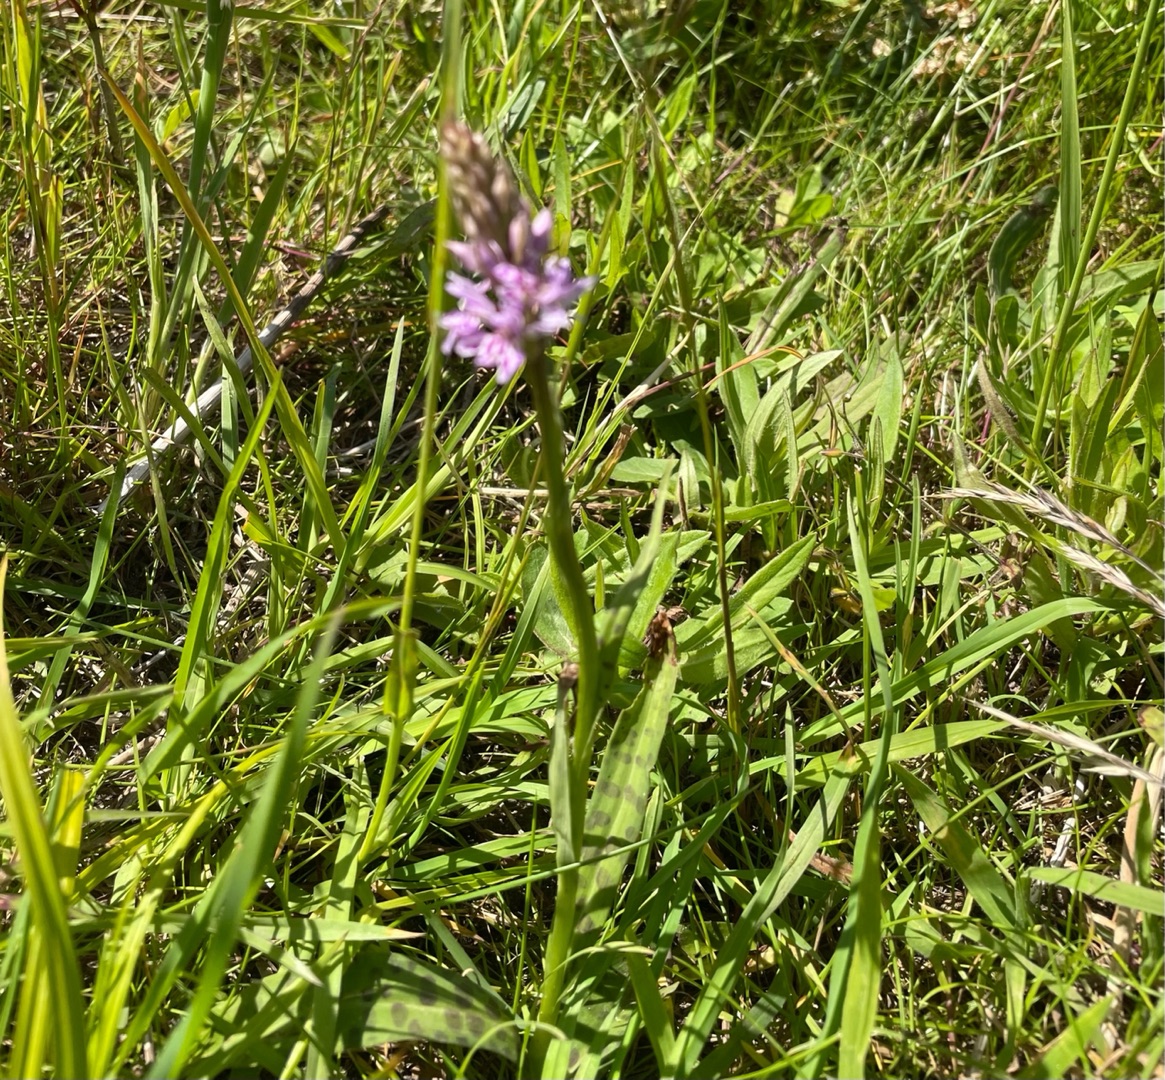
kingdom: Plantae
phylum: Tracheophyta
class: Liliopsida
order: Asparagales
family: Orchidaceae
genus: Dactylorhiza
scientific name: Dactylorhiza maculata
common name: Skov-gøgeurt
